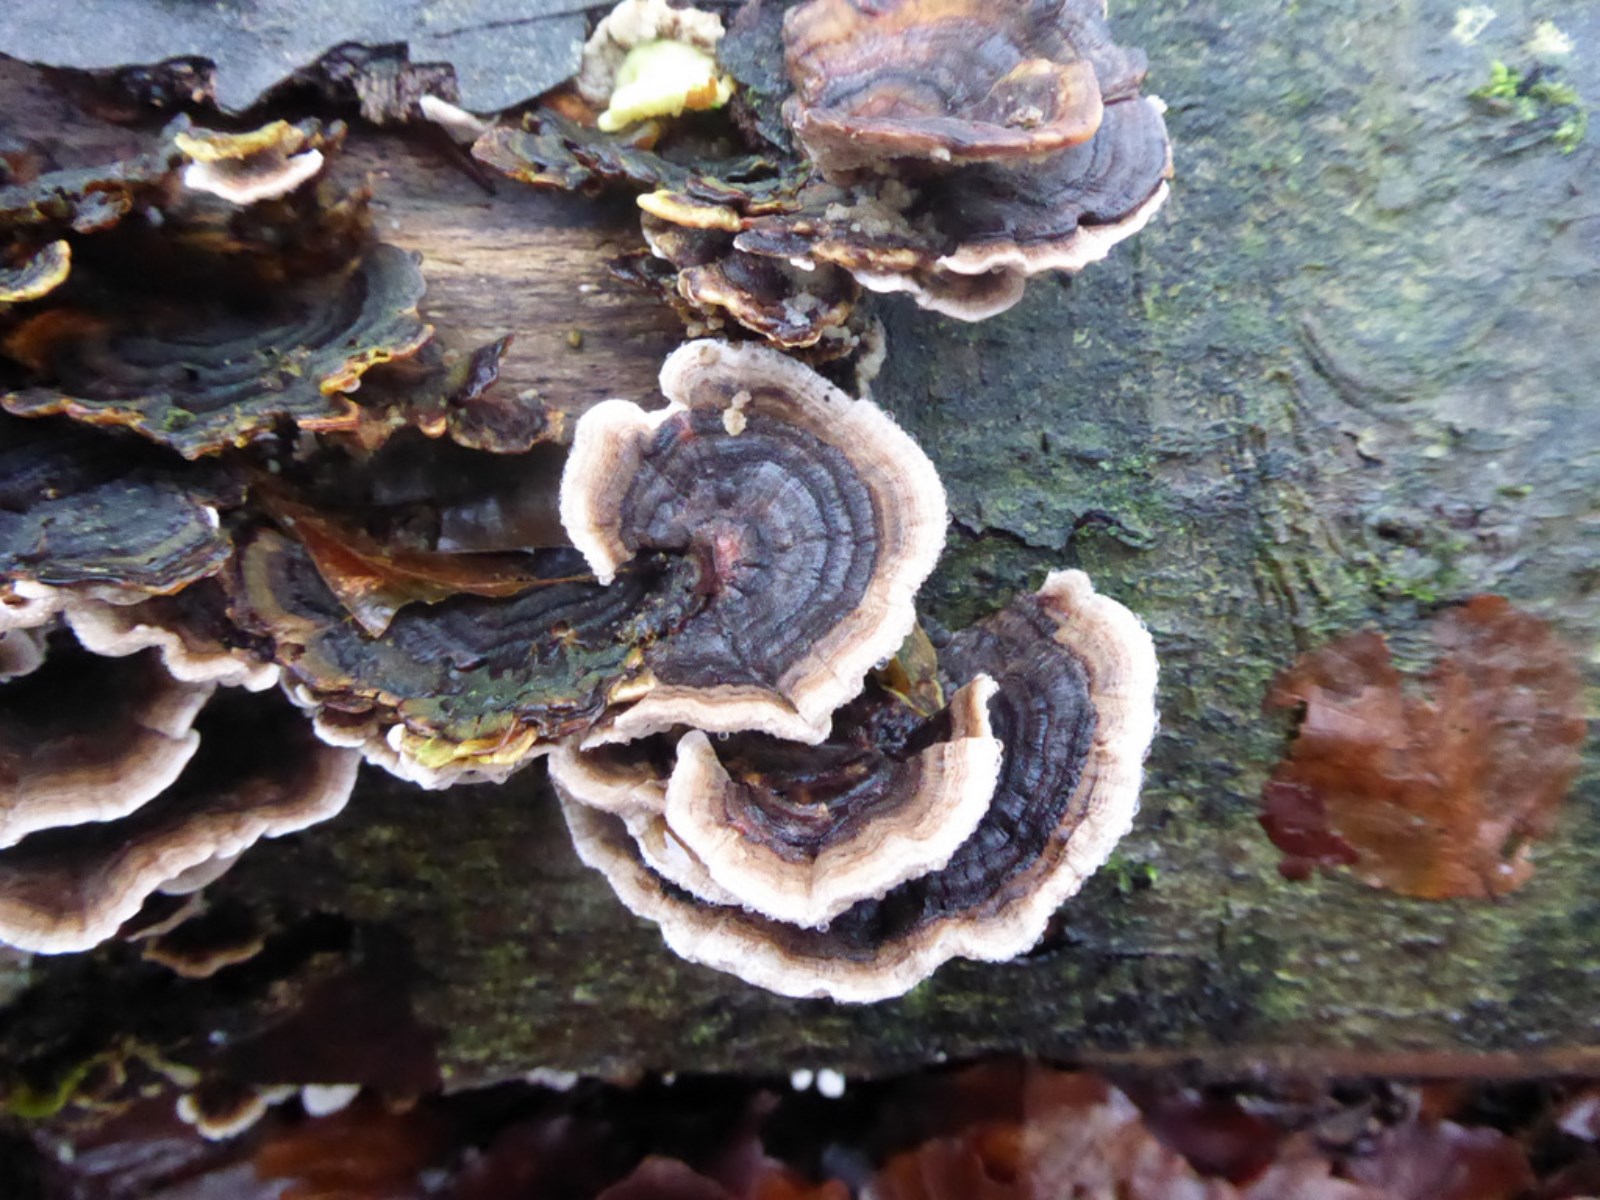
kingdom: Fungi
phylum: Basidiomycota
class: Agaricomycetes
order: Polyporales
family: Polyporaceae
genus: Trametes
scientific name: Trametes versicolor
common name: broget læderporesvamp
